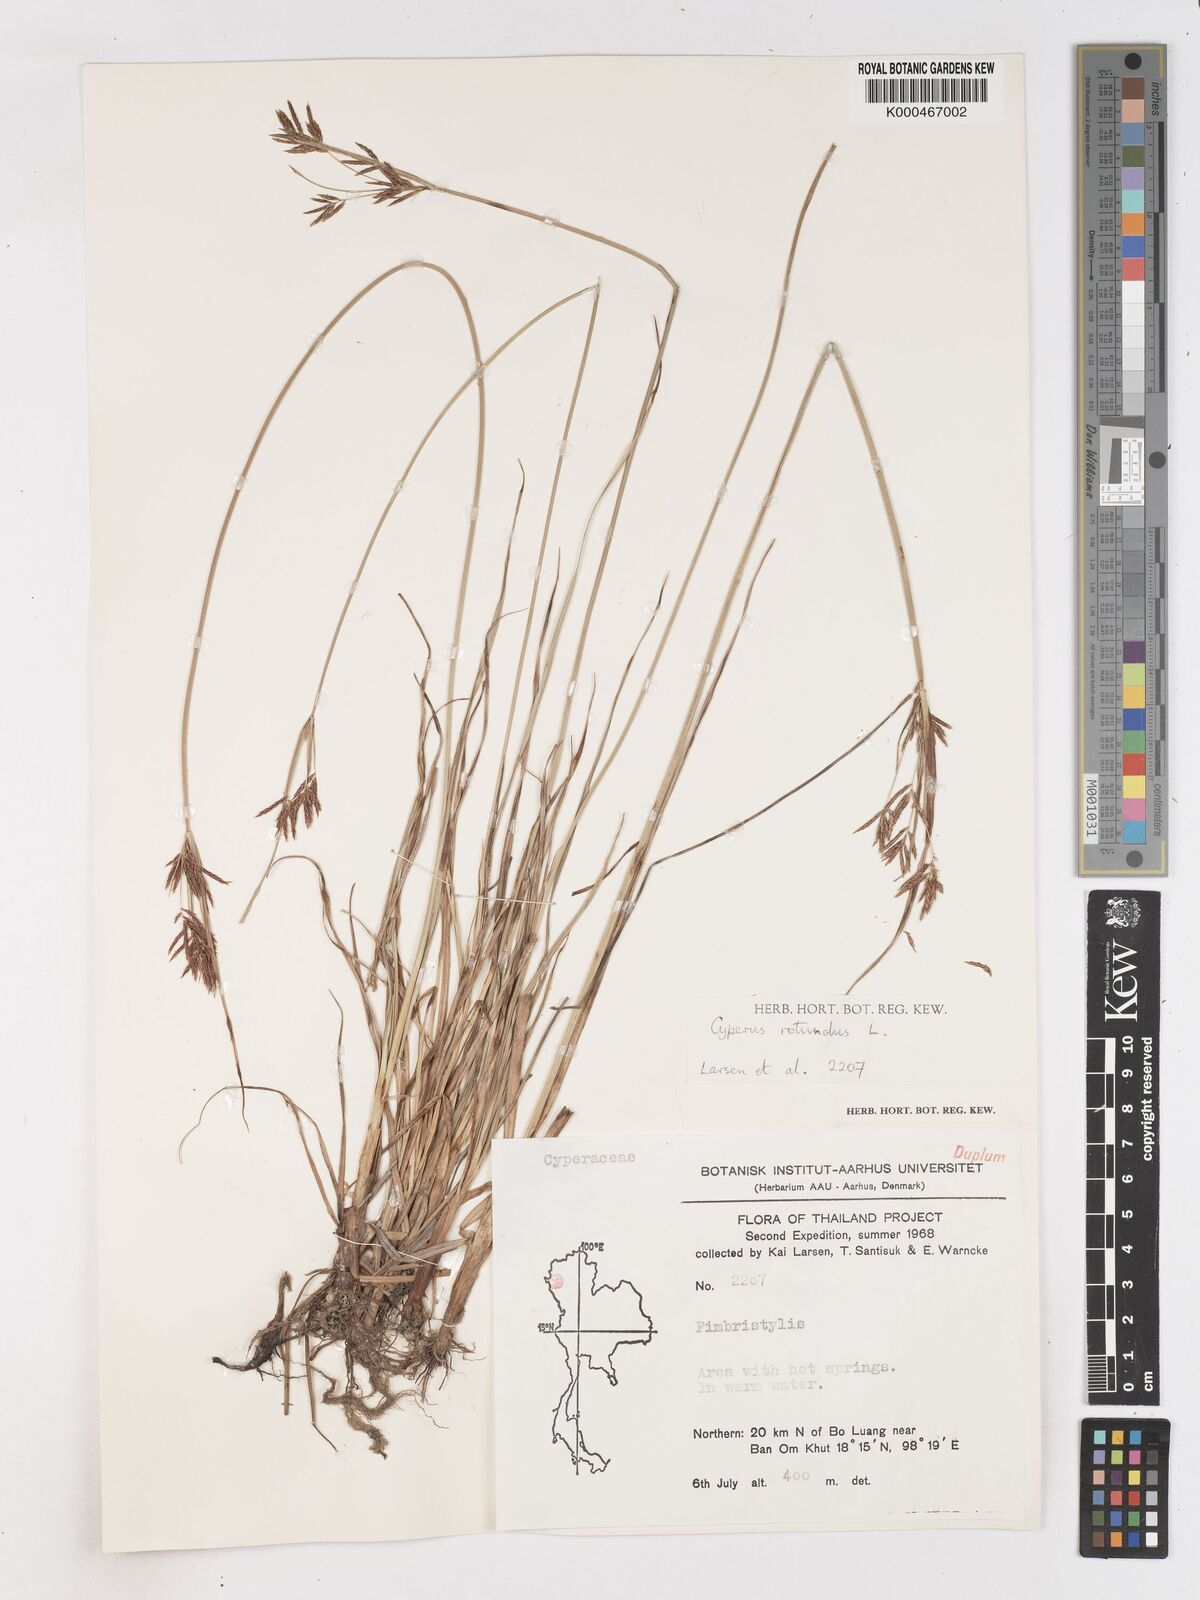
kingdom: Plantae
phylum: Tracheophyta
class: Liliopsida
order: Poales
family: Cyperaceae
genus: Cyperus
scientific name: Cyperus rotundus
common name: Nutgrass
